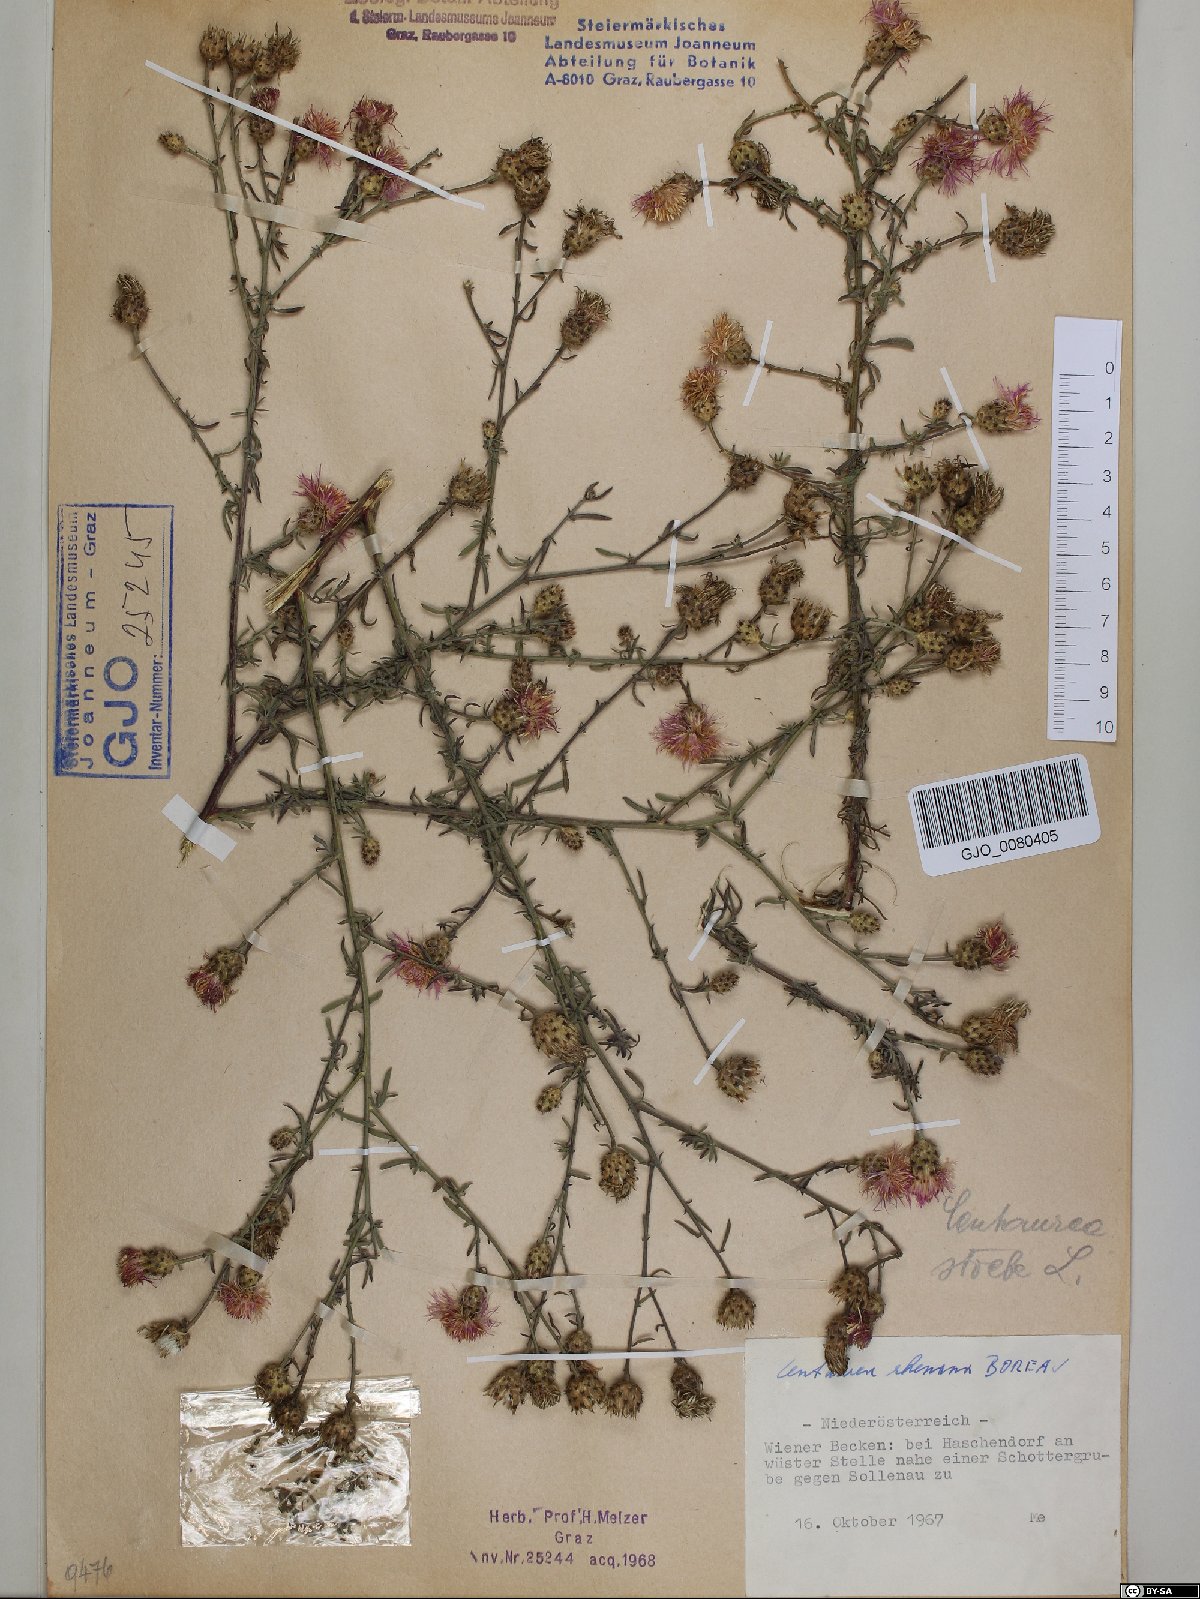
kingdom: Plantae
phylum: Tracheophyta
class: Magnoliopsida
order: Asterales
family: Asteraceae
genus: Centaurea
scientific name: Centaurea stoebe
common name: Spotted knapweed
